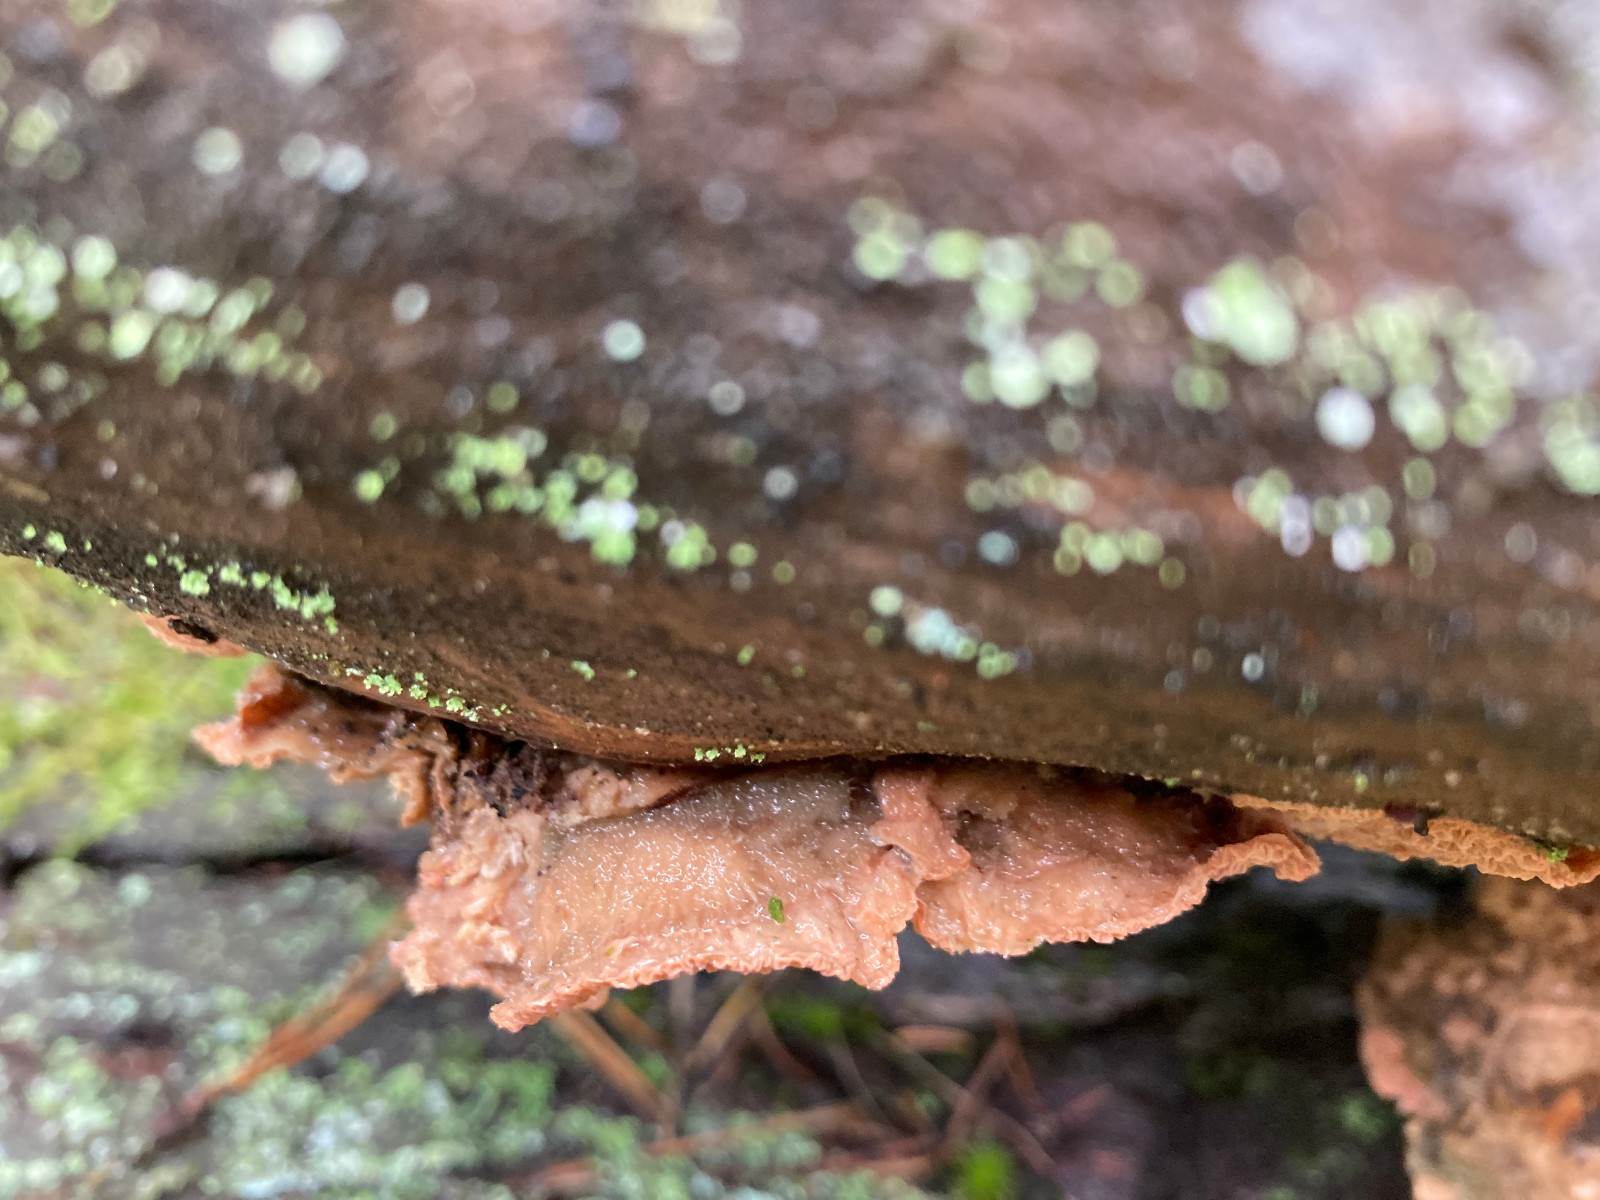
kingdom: Fungi
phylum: Basidiomycota
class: Agaricomycetes
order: Polyporales
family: Meruliaceae
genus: Phlebia
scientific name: Phlebia tremellosa
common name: bævrende åresvamp
